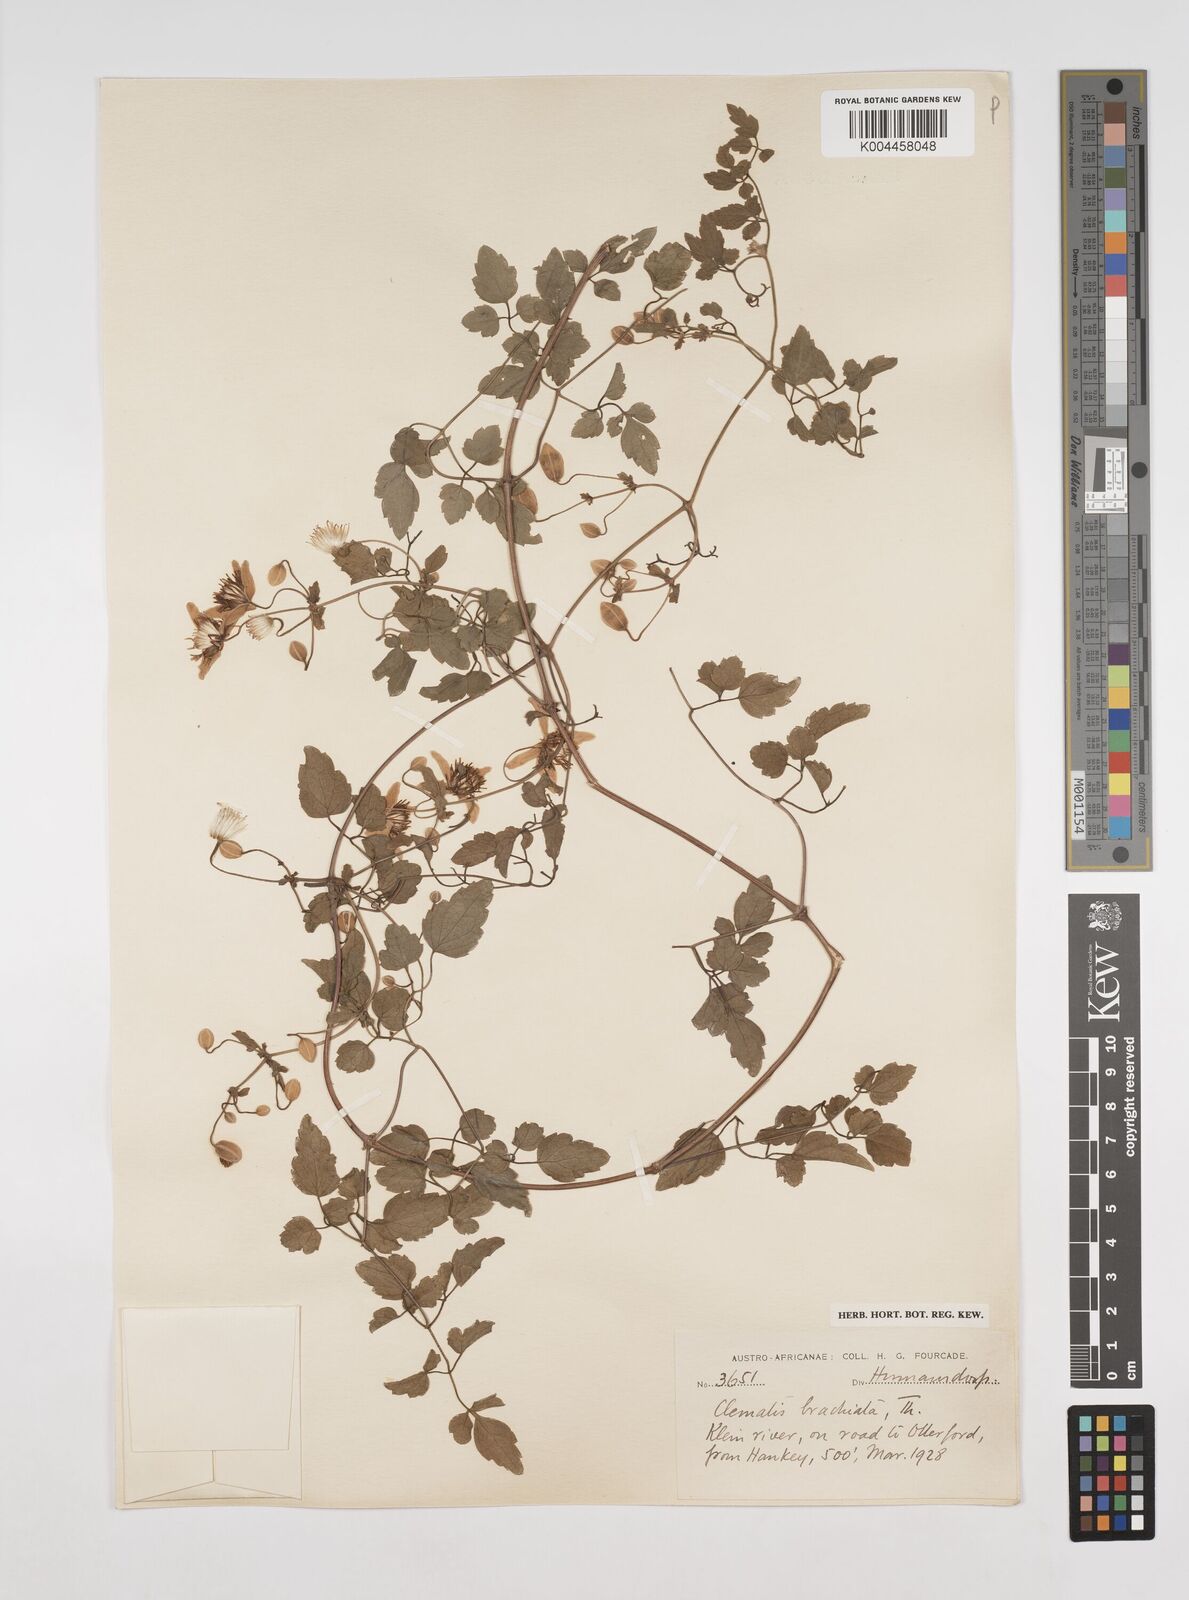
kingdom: Plantae
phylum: Tracheophyta
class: Magnoliopsida
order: Ranunculales
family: Ranunculaceae
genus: Clematis
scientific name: Clematis brachiata
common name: Traveler's-joy
